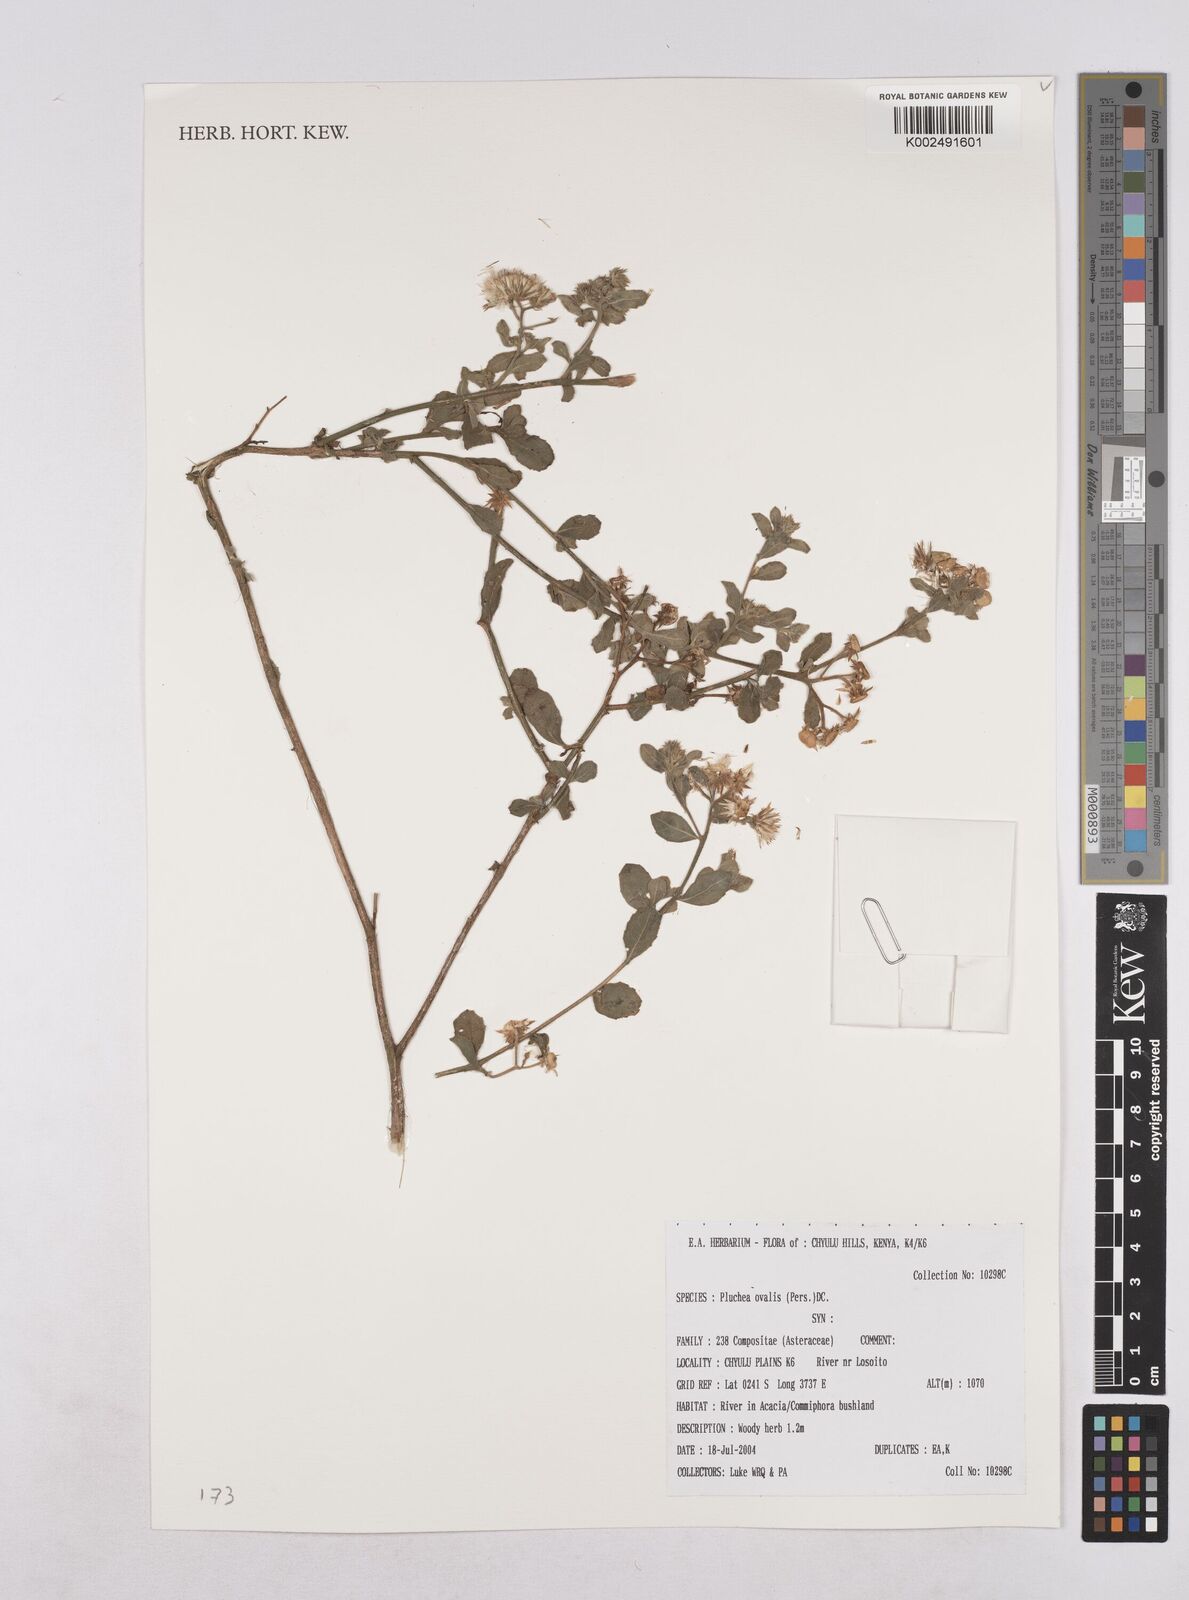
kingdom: Plantae
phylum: Tracheophyta
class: Magnoliopsida
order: Asterales
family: Asteraceae
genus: Pluchea
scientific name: Pluchea ovalis
